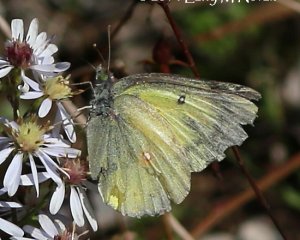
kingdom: Animalia
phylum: Arthropoda
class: Insecta
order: Lepidoptera
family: Pieridae
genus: Colias
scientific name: Colias philodice
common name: Clouded Sulphur
